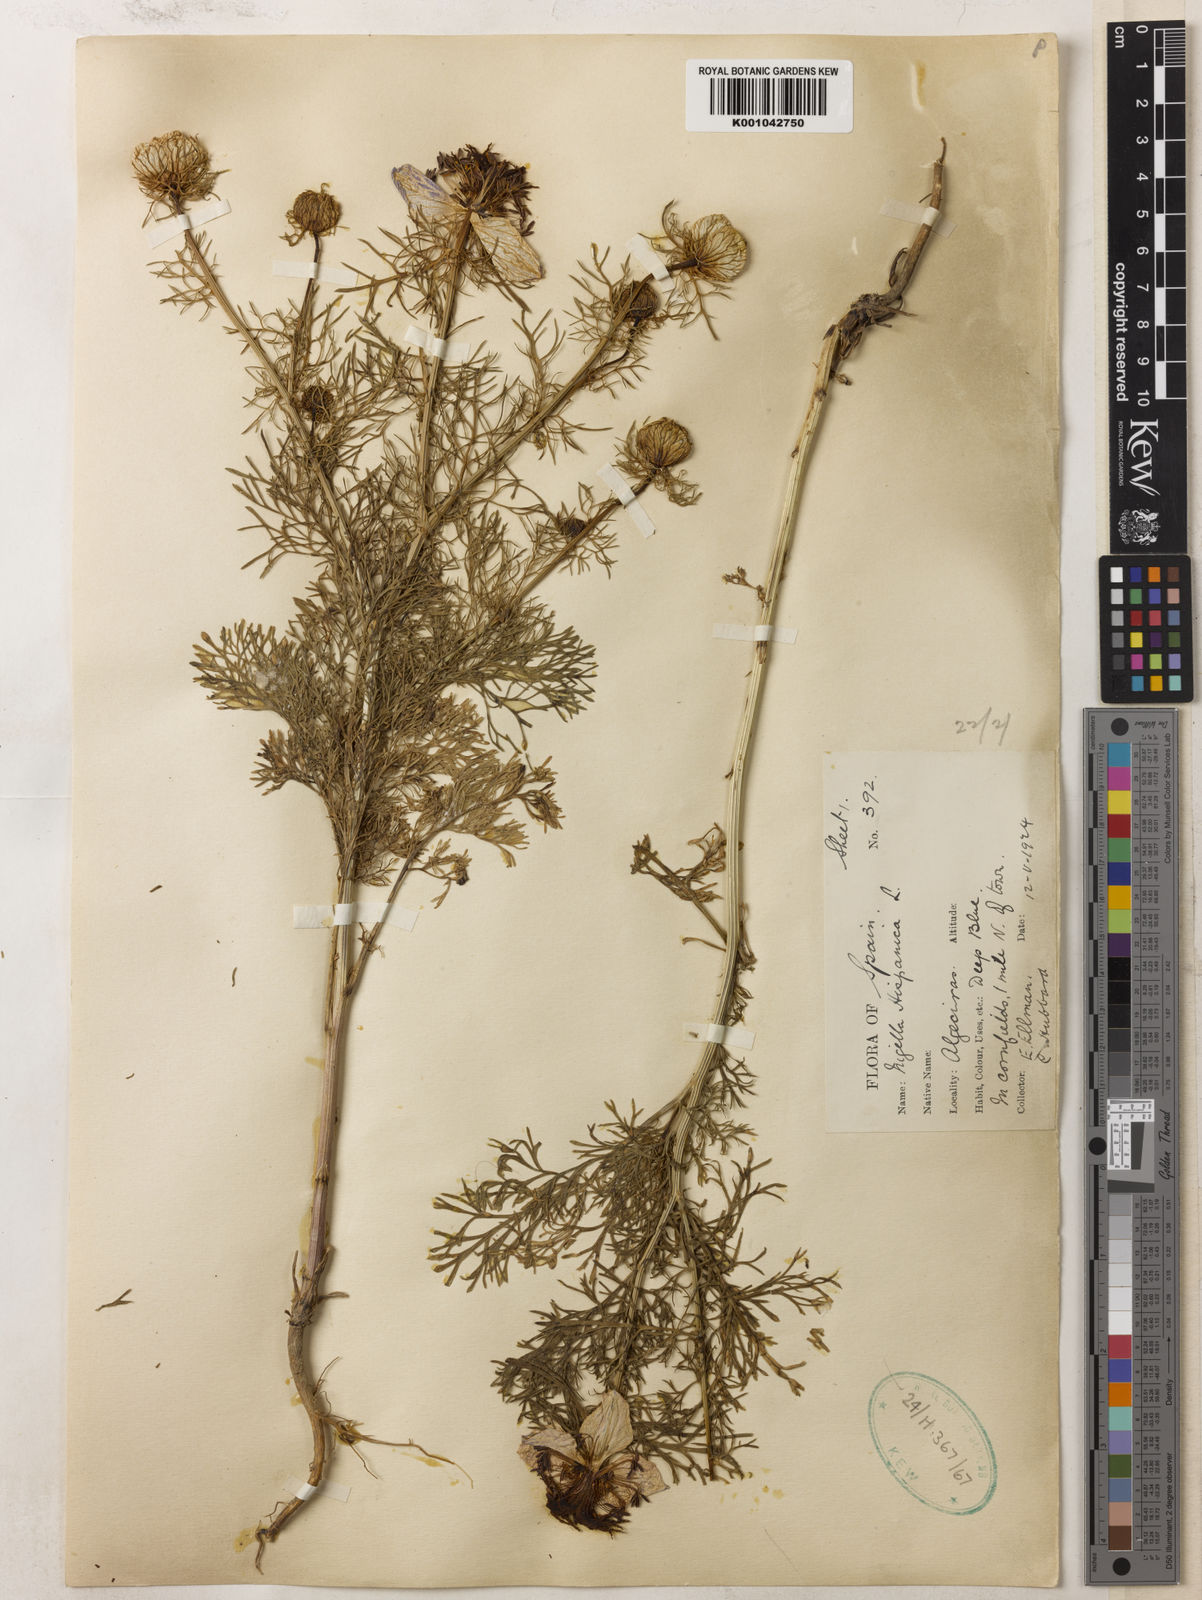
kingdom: Plantae
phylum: Tracheophyta
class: Magnoliopsida
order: Ranunculales
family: Ranunculaceae
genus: Nigella
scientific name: Nigella hispanica
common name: Fennel-flower
